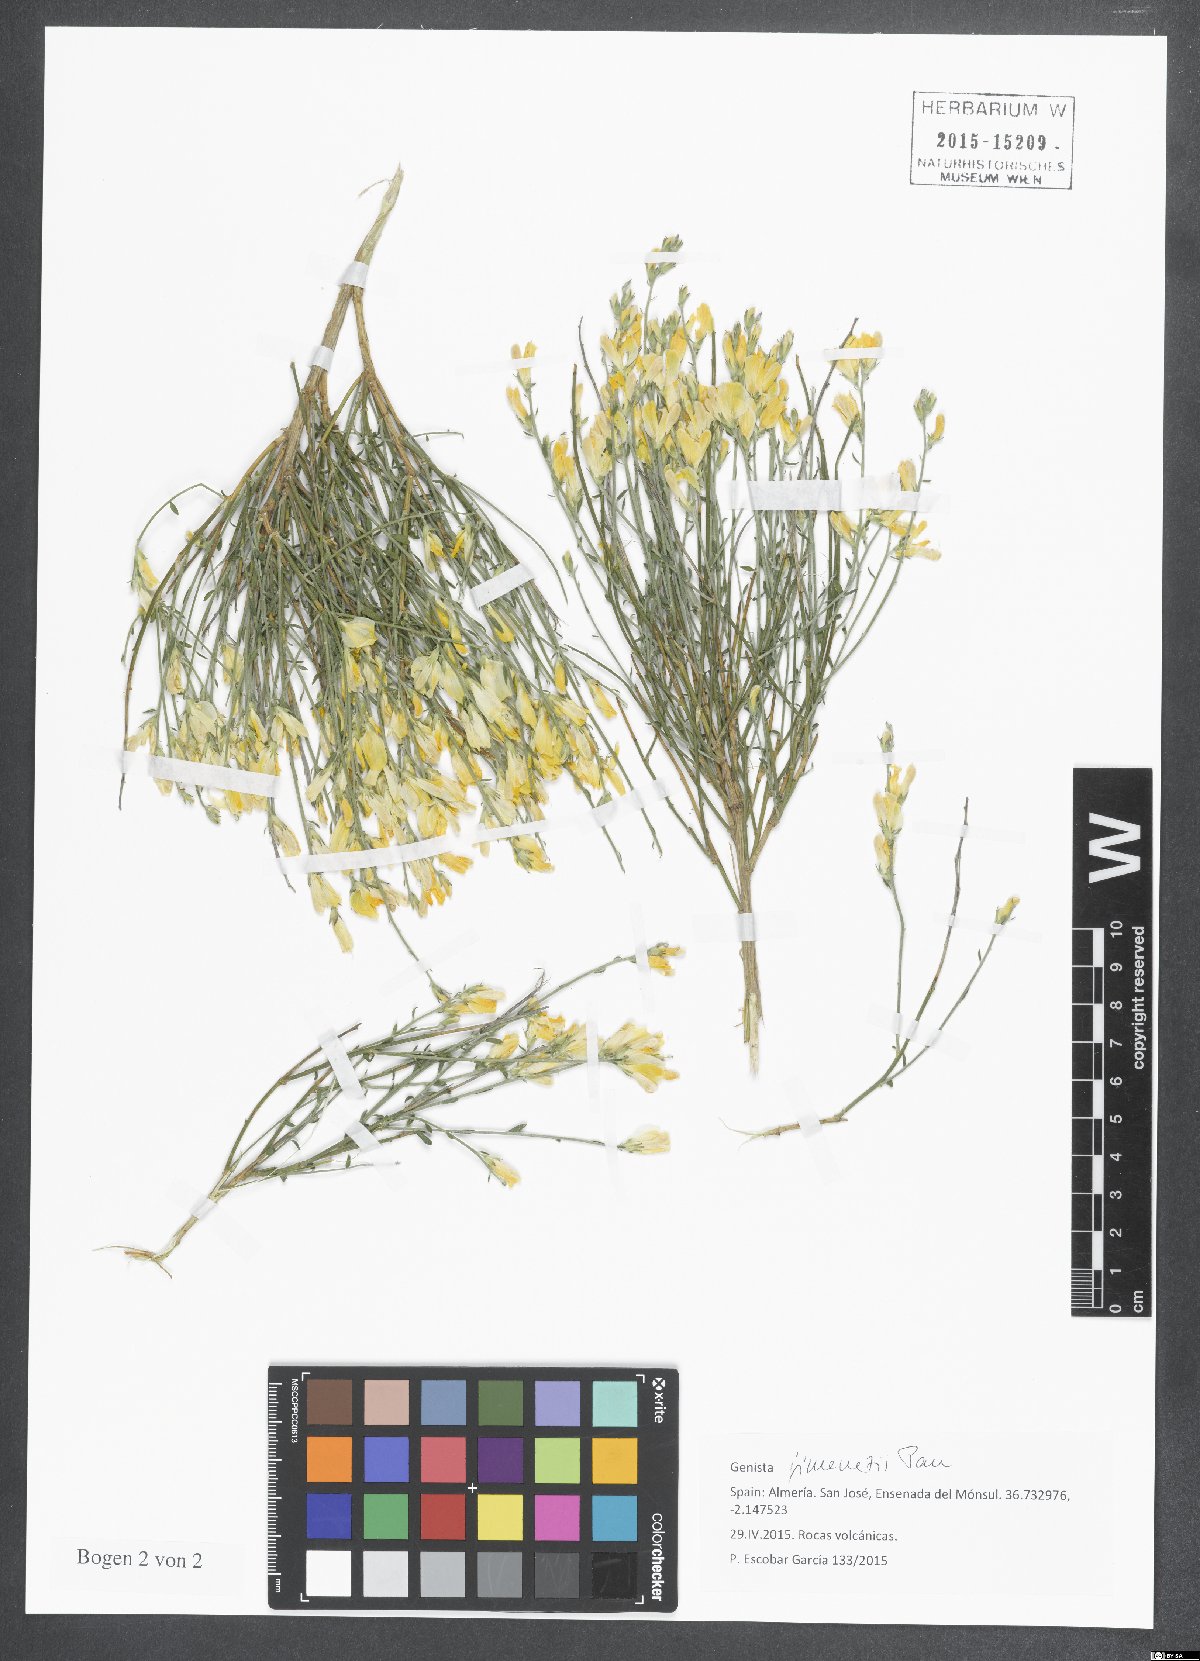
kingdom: Plantae
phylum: Tracheophyta
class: Magnoliopsida
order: Fabales
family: Fabaceae
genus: Genista
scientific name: Genista jimenezii
